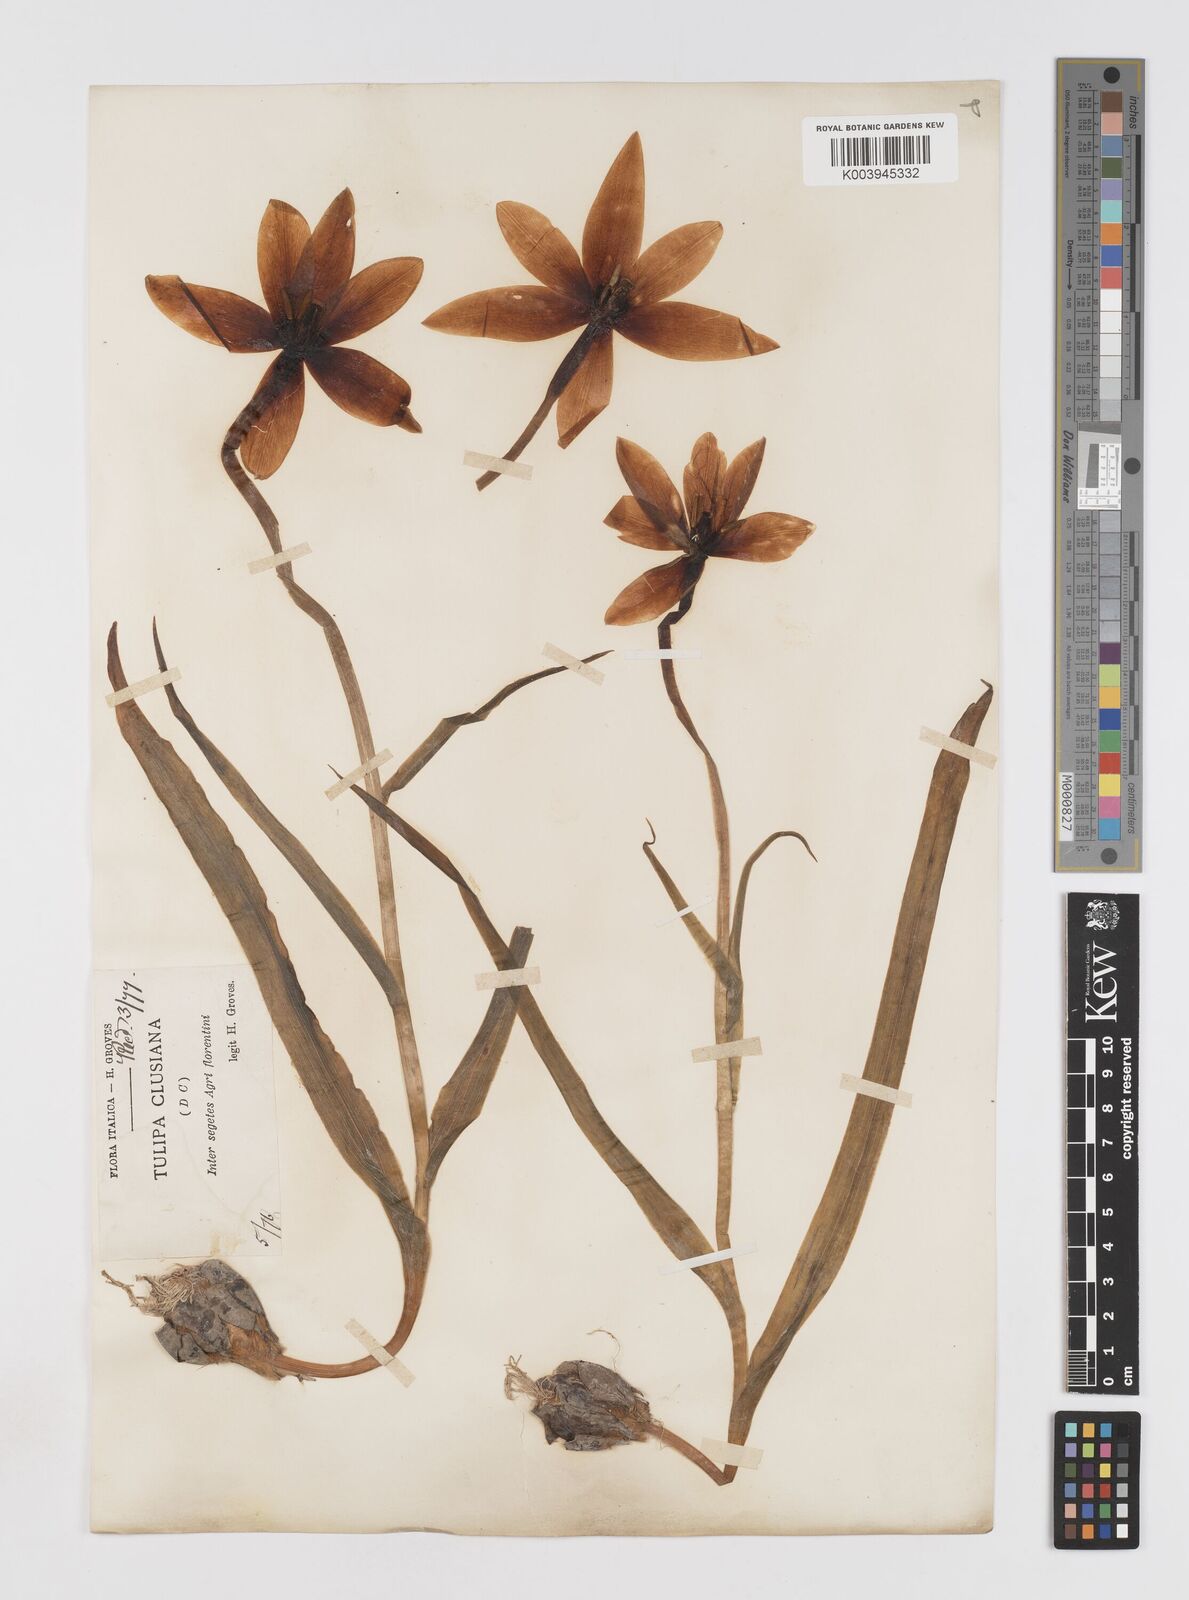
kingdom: Plantae
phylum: Tracheophyta
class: Liliopsida
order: Liliales
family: Liliaceae
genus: Tulipa
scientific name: Tulipa clusiana
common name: Lady tulip
